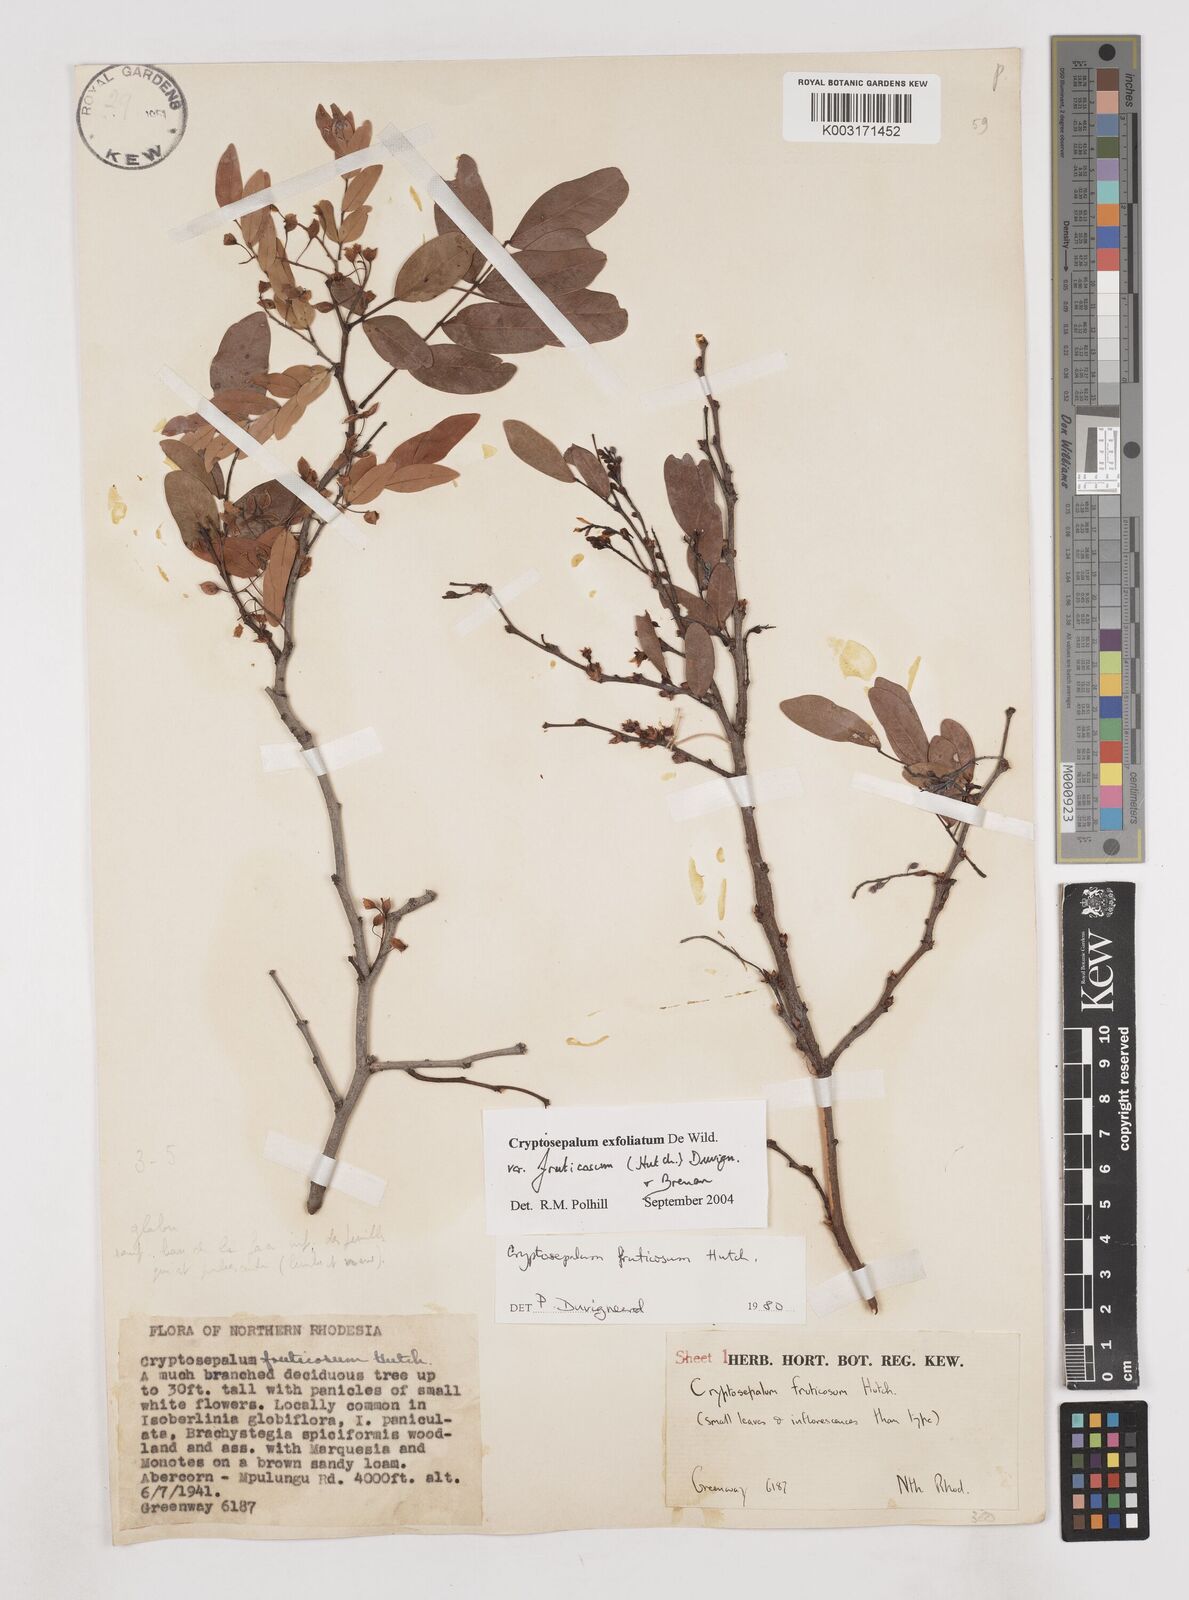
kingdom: Plantae
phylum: Tracheophyta
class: Magnoliopsida
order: Fabales
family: Fabaceae
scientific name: Fabaceae
